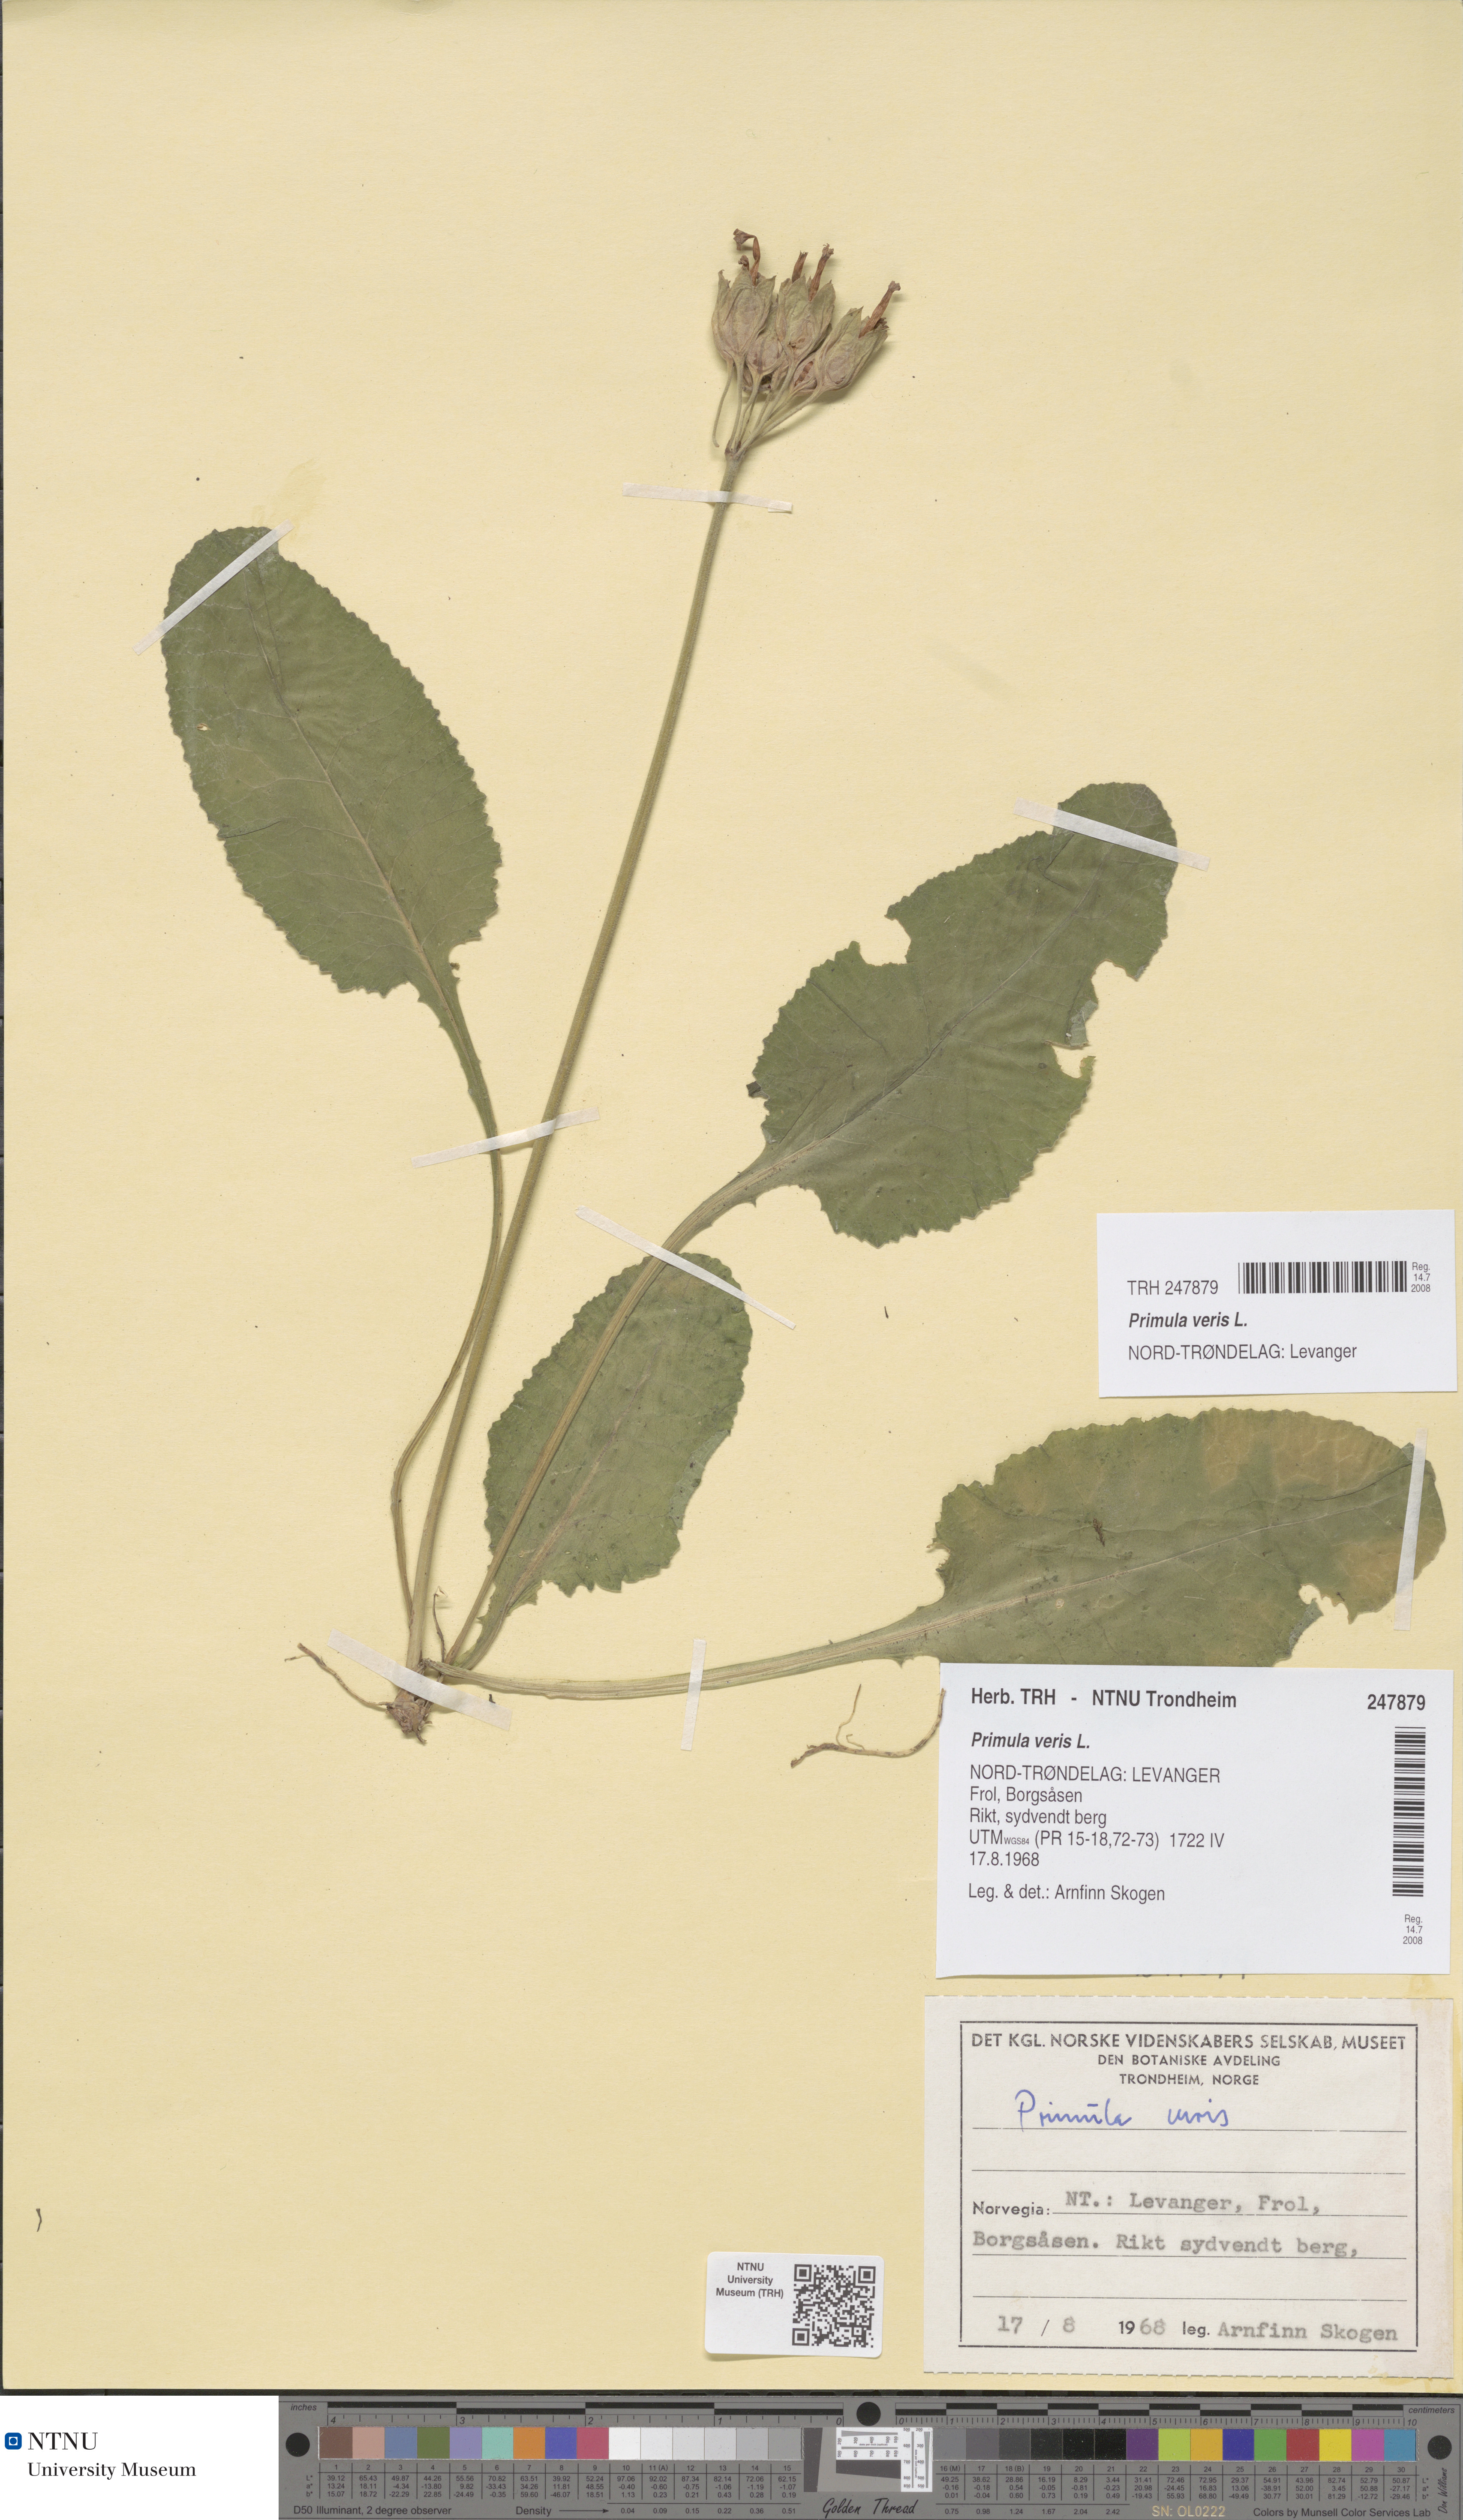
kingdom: Plantae
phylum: Tracheophyta
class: Magnoliopsida
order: Ericales
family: Primulaceae
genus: Primula
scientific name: Primula veris
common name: Cowslip
